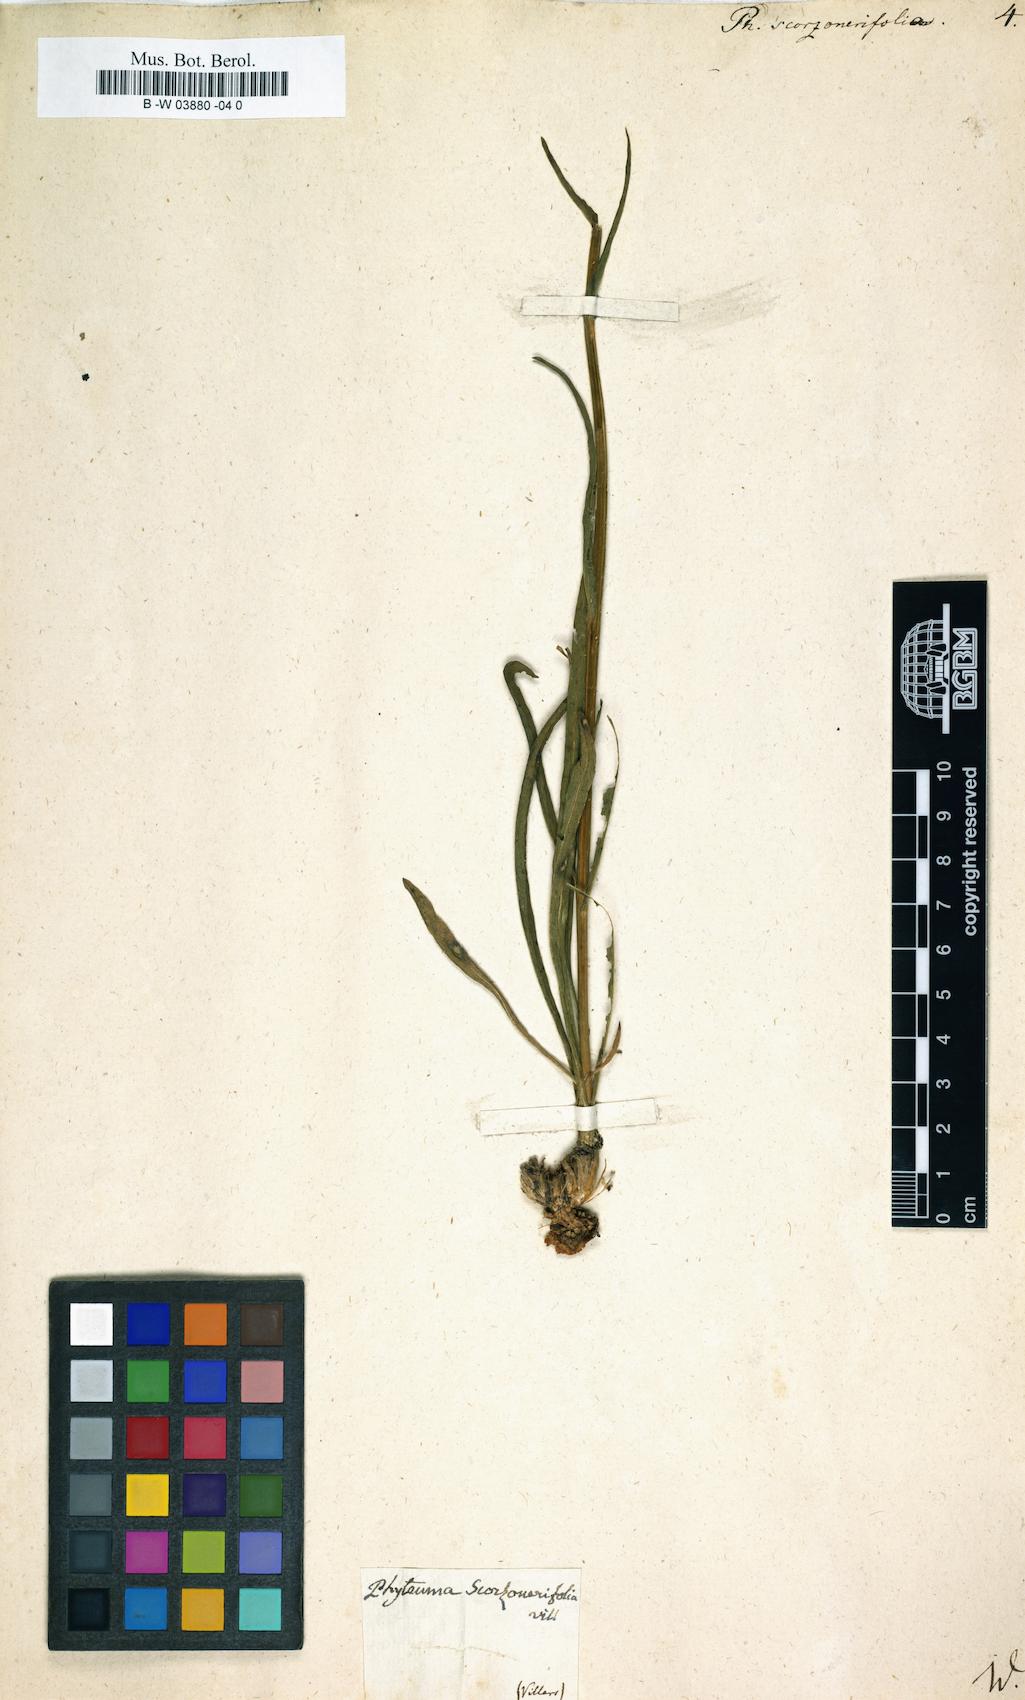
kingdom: Plantae
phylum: Tracheophyta
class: Magnoliopsida
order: Asterales
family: Campanulaceae
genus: Phyteuma
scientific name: Phyteuma scorzonerifolium
